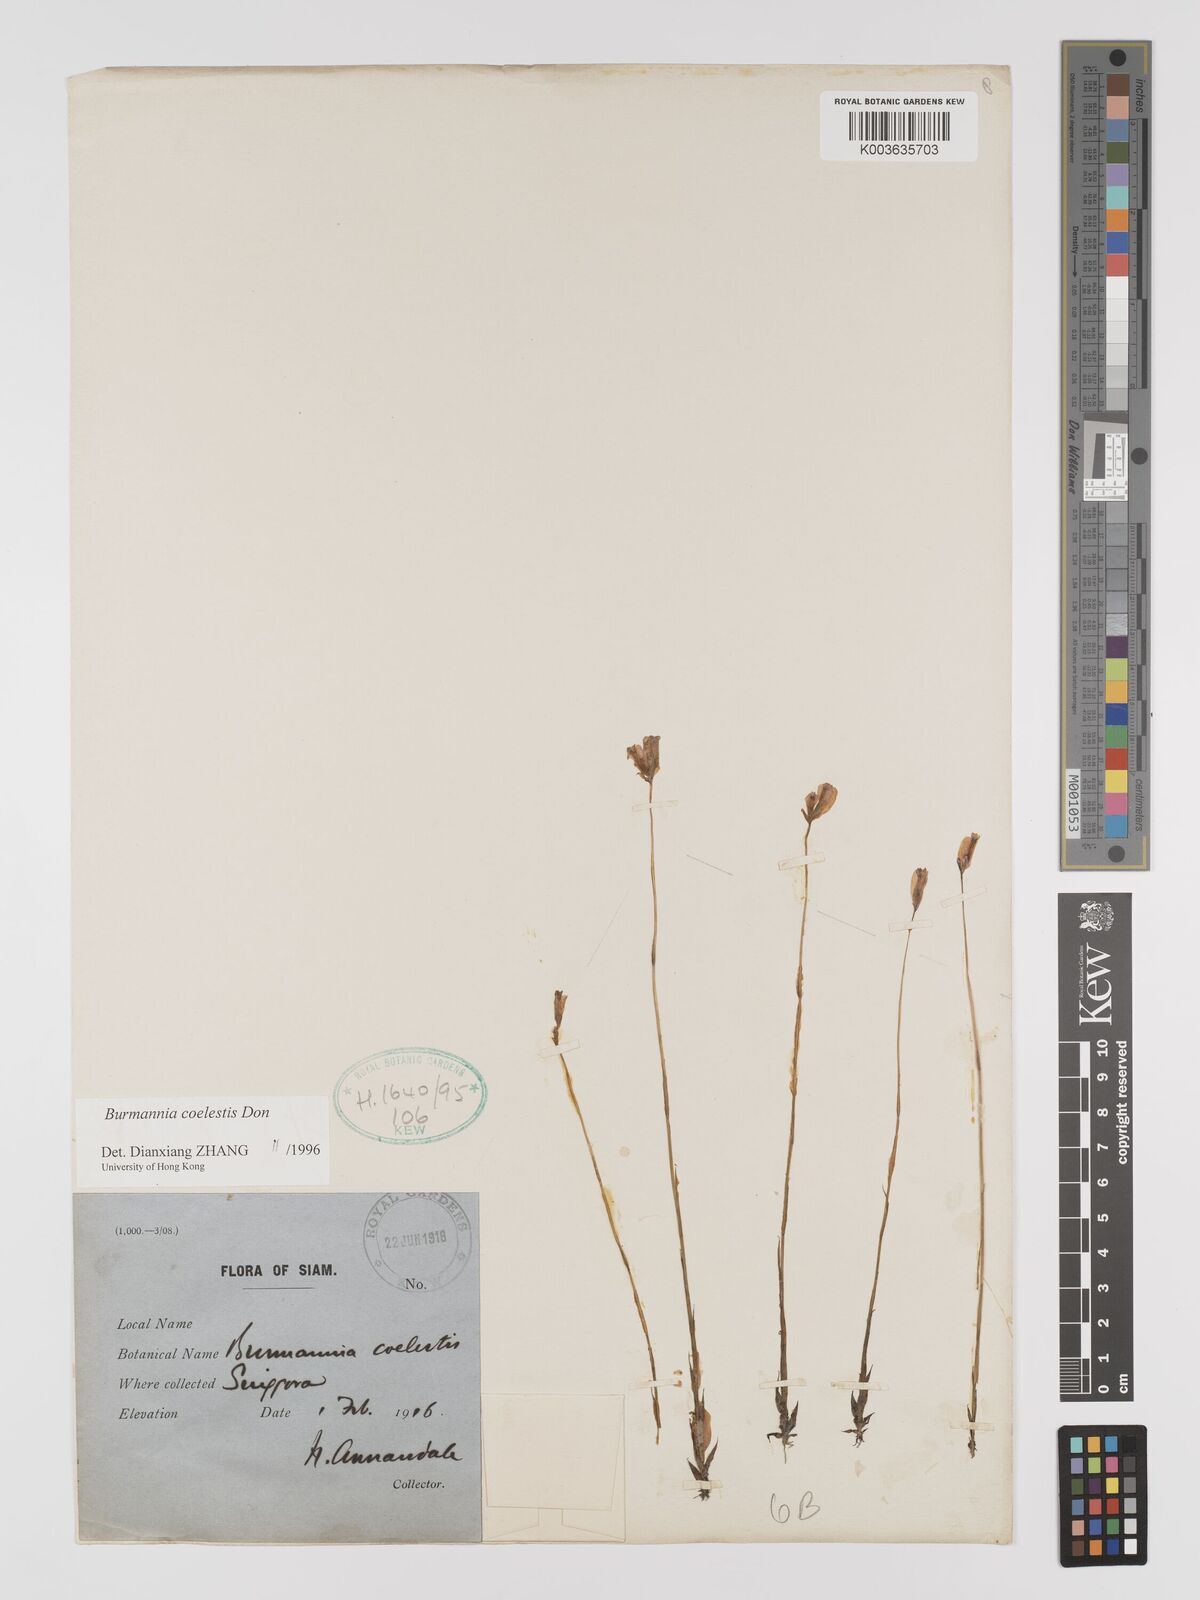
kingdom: Plantae
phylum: Tracheophyta
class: Liliopsida
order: Dioscoreales
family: Burmanniaceae
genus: Burmannia
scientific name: Burmannia coelestis
